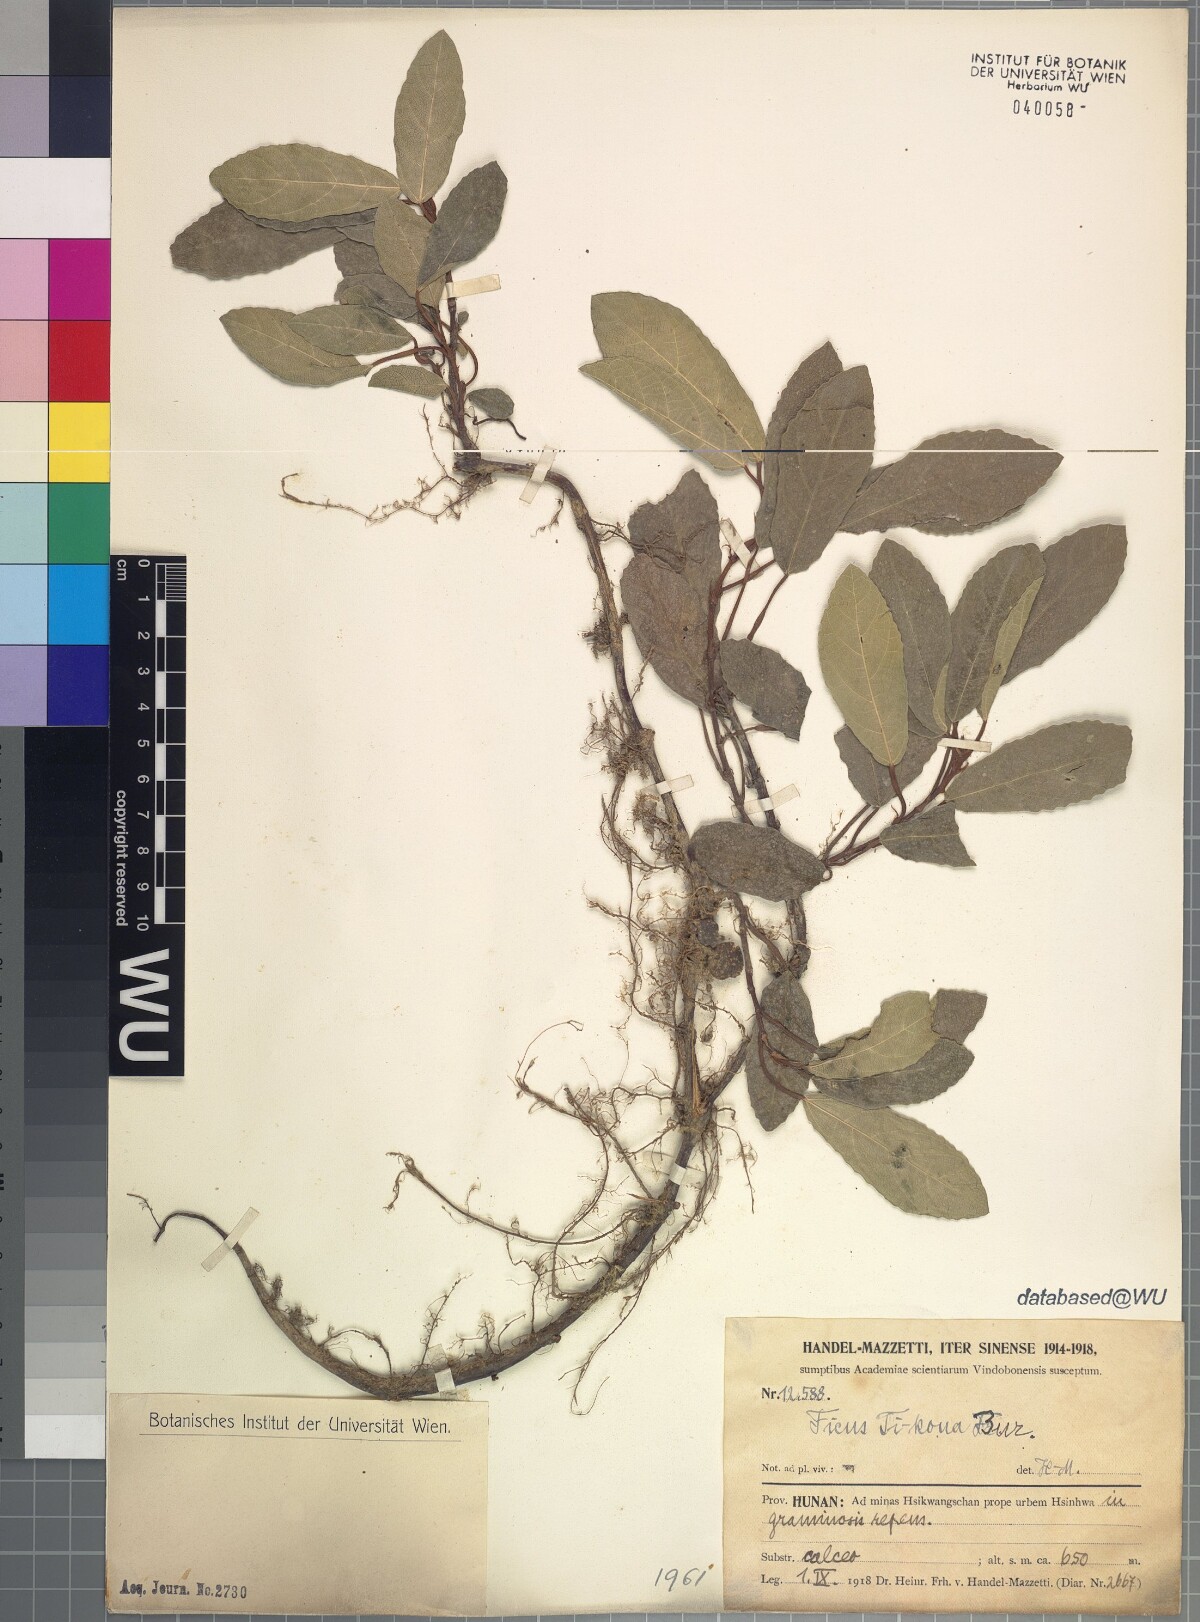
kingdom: Plantae
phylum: Tracheophyta
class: Magnoliopsida
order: Rosales
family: Moraceae
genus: Ficus
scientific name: Ficus tikoua
